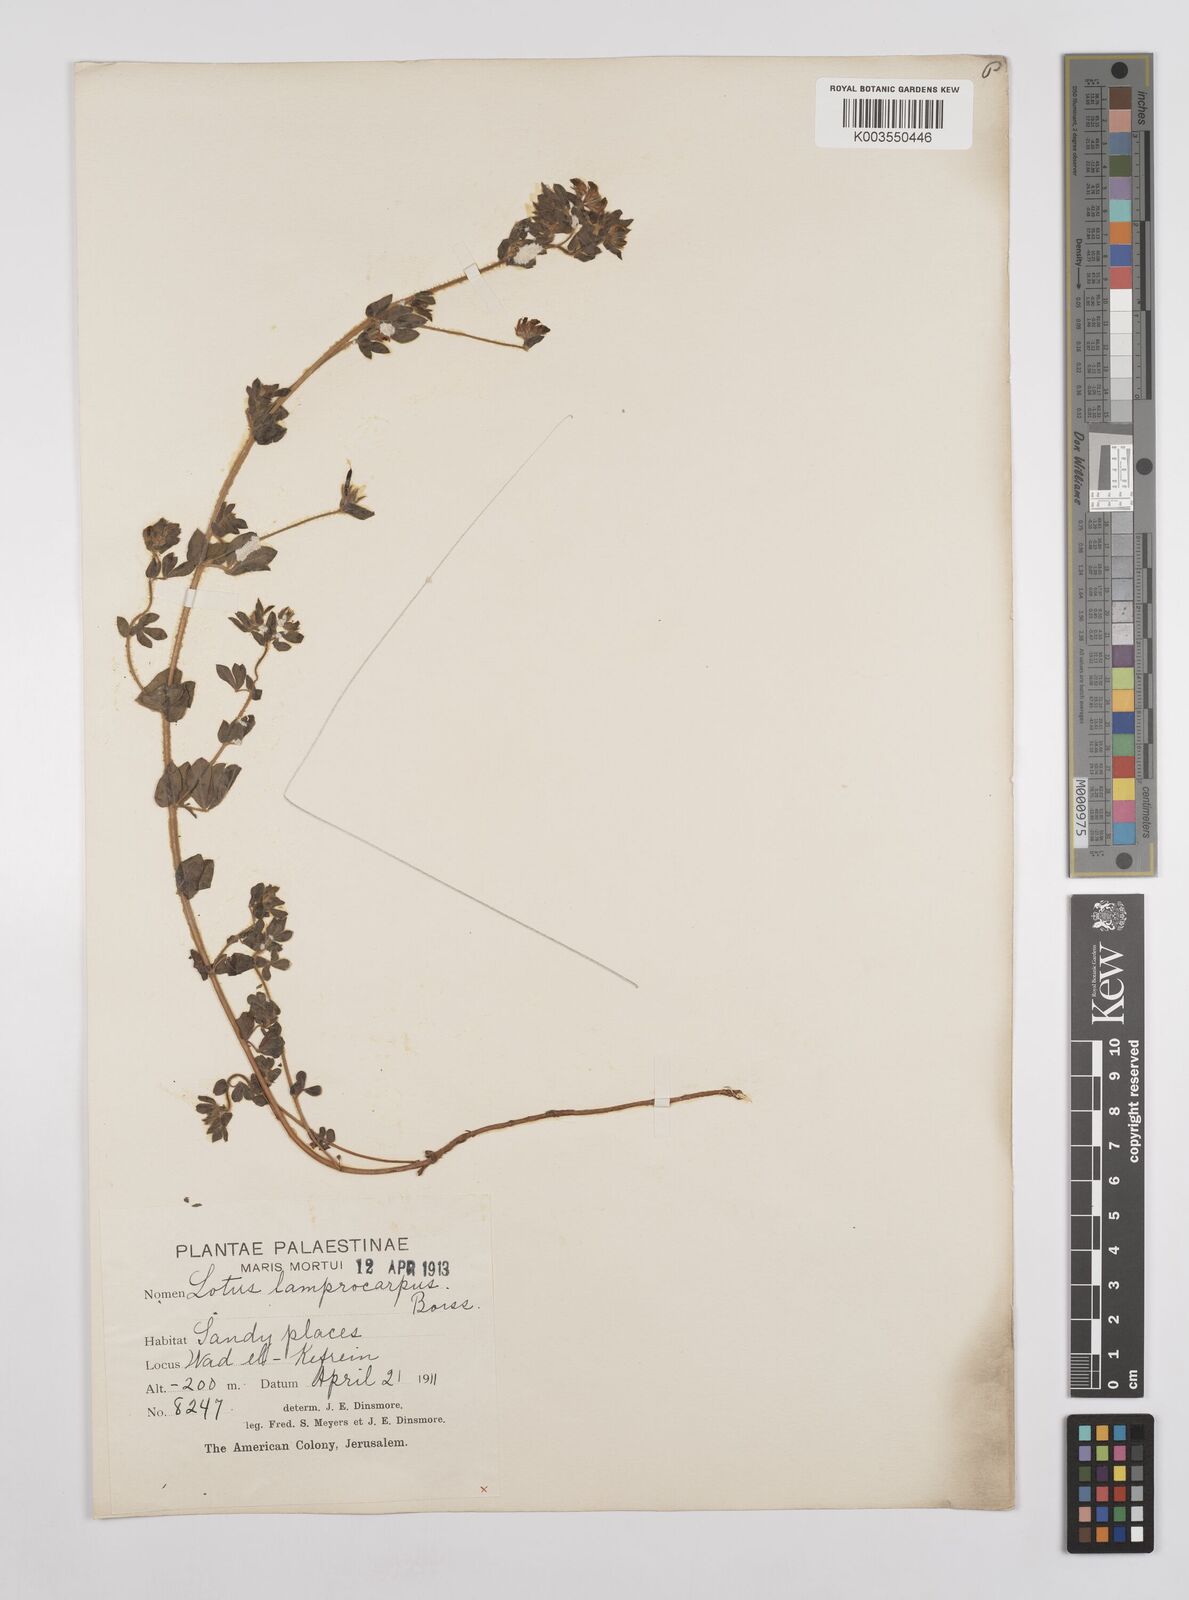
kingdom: Plantae
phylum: Tracheophyta
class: Magnoliopsida
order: Fabales
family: Fabaceae
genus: Lotus
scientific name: Lotus palustris
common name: Large birds-foot trefoil
